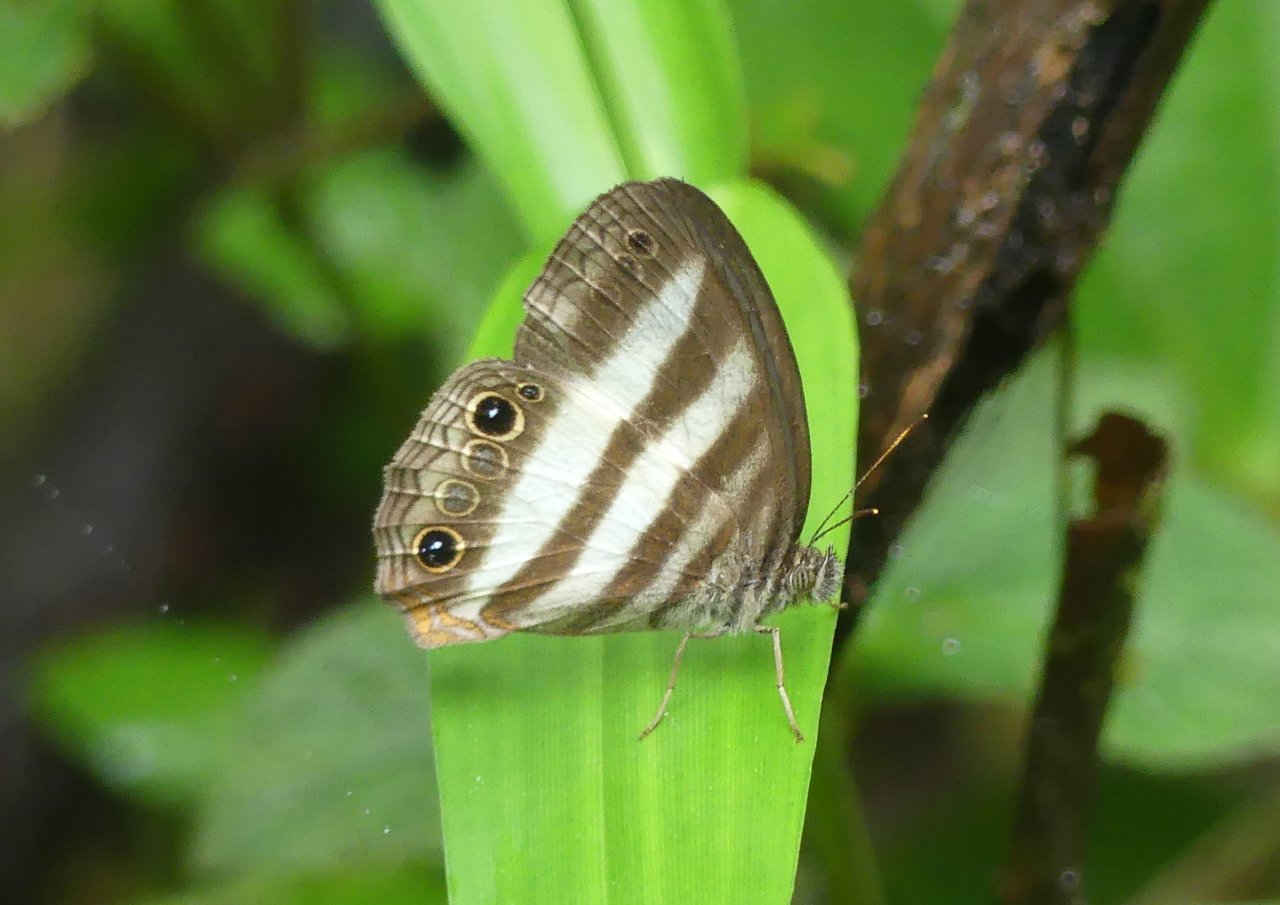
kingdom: Animalia
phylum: Arthropoda
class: Insecta
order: Lepidoptera
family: Nymphalidae
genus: Pareuptychia
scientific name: Pareuptychia hesione
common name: White Satyr
